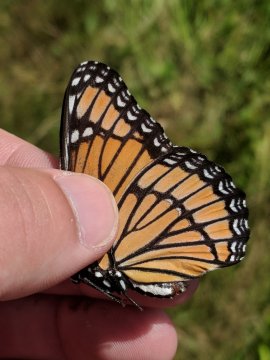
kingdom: Animalia
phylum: Arthropoda
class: Insecta
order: Lepidoptera
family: Nymphalidae
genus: Limenitis
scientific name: Limenitis archippus
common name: Viceroy
